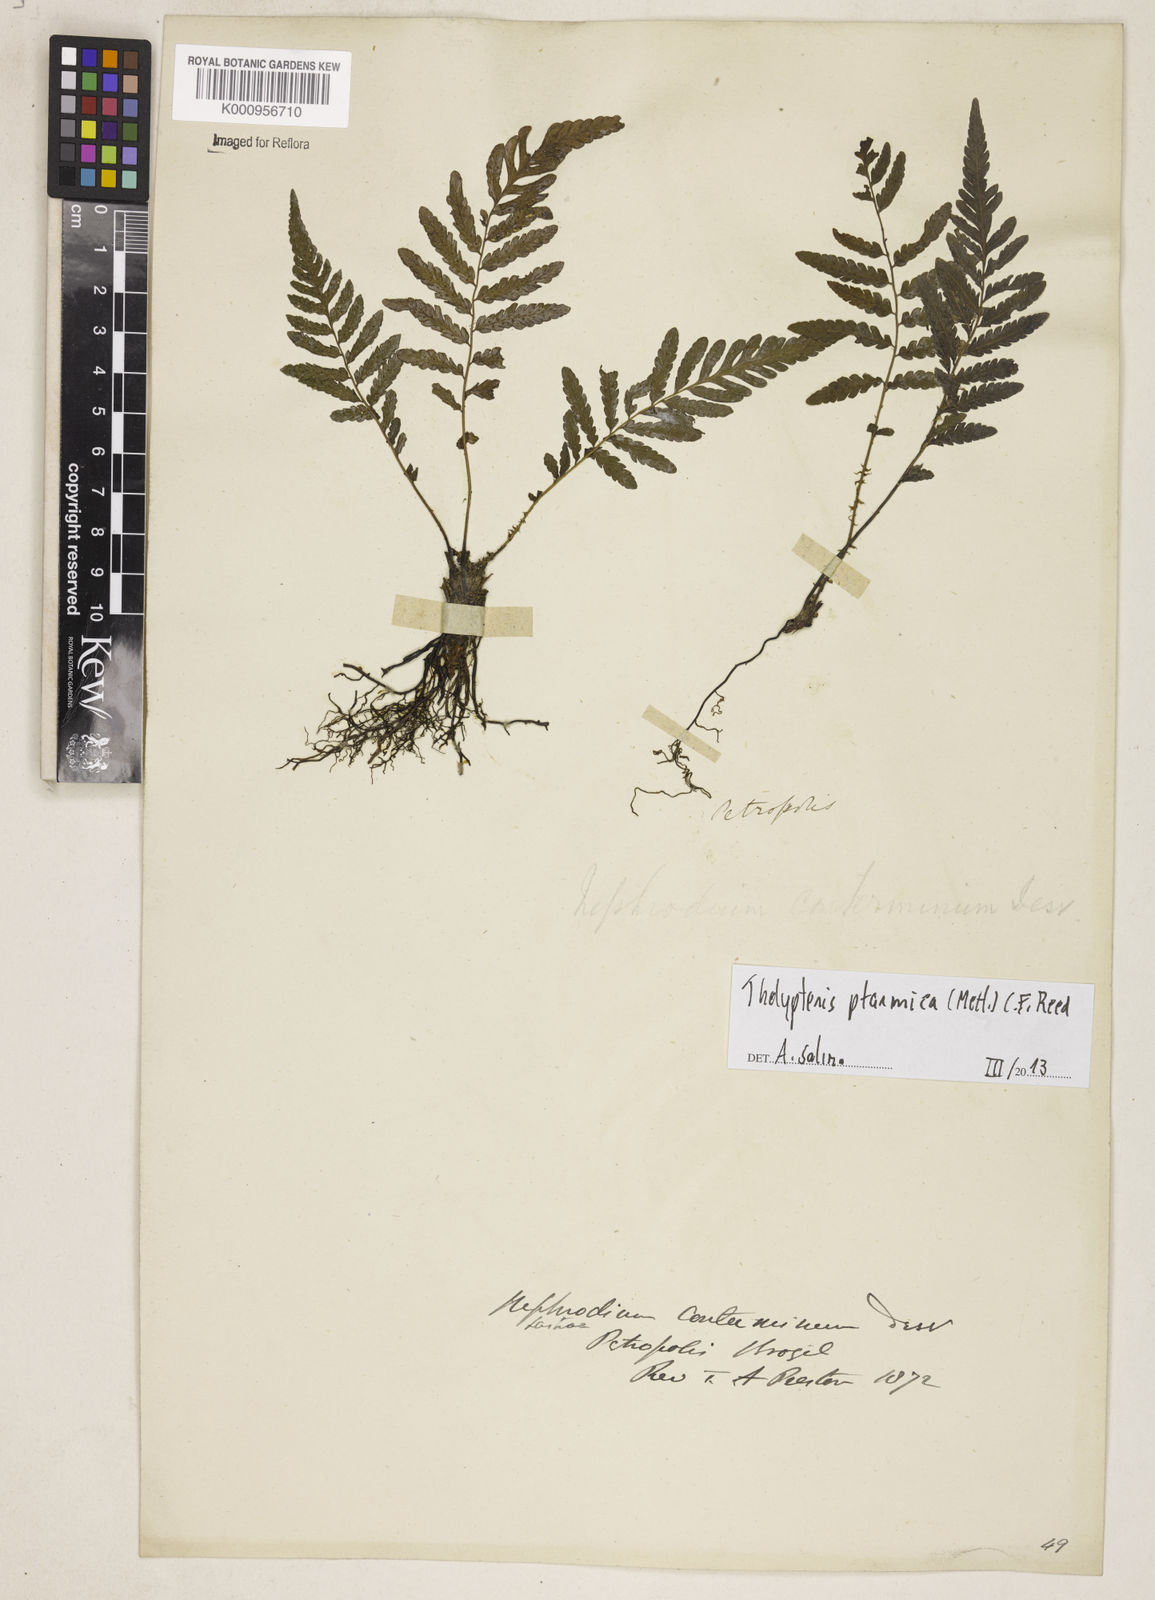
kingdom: Plantae
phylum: Tracheophyta
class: Polypodiopsida
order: Polypodiales
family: Thelypteridaceae
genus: Amauropelta
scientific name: Amauropelta ptarmica
